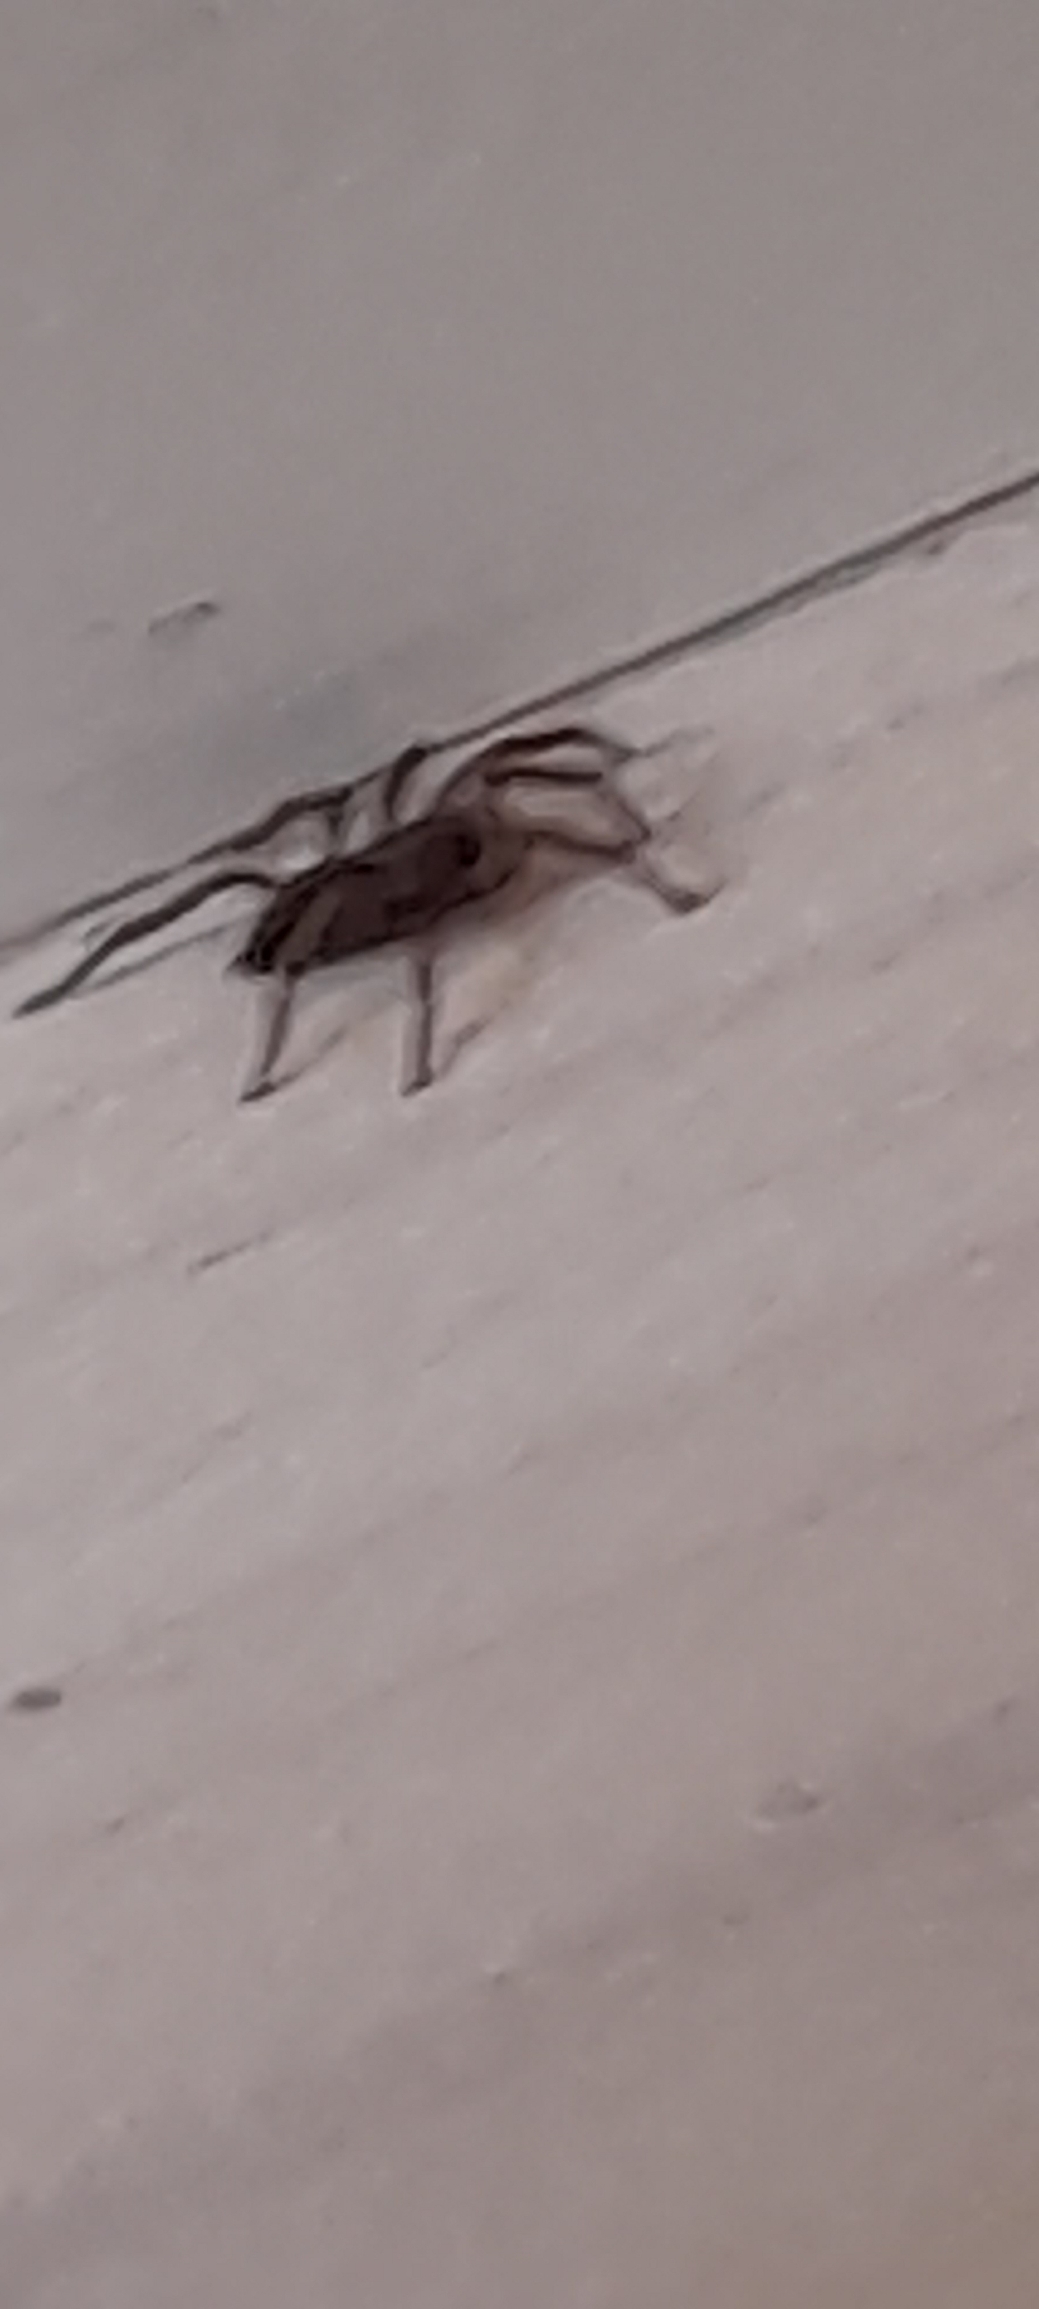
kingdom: Animalia
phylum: Arthropoda
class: Arachnida
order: Araneae
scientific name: Araneae
